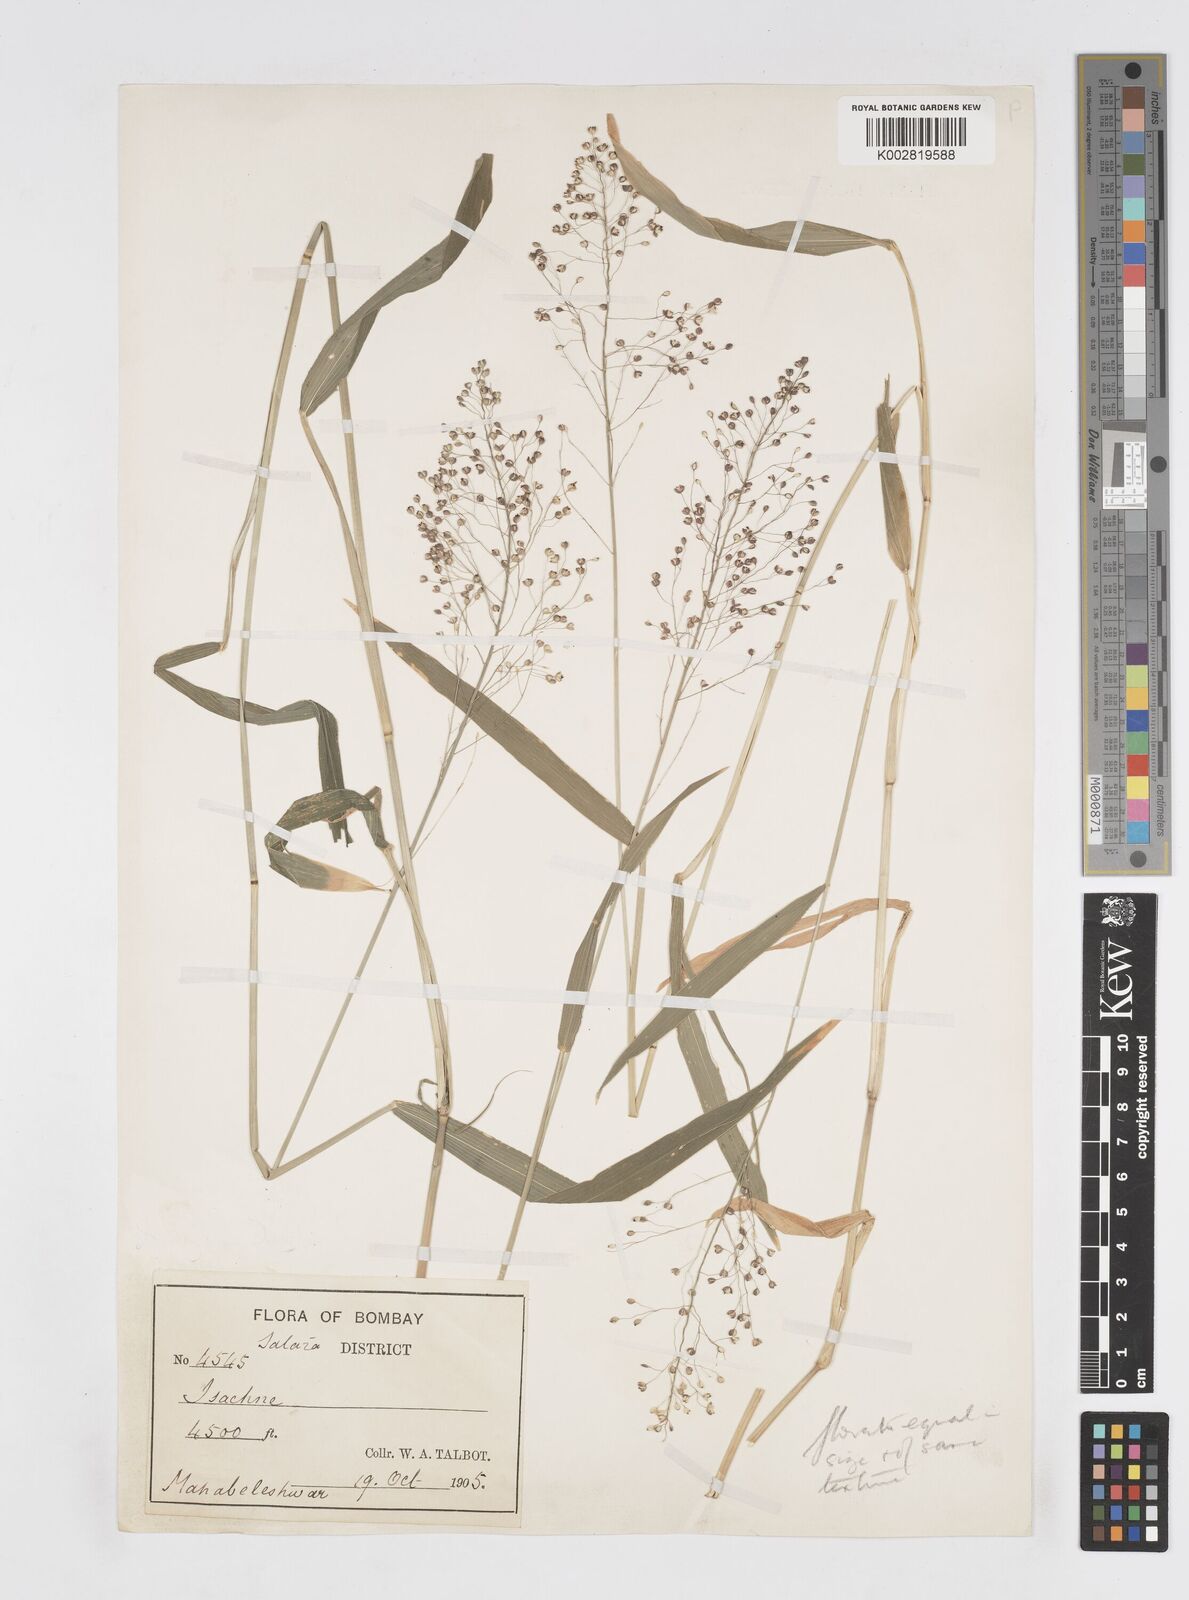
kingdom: Plantae
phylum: Tracheophyta
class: Liliopsida
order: Poales
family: Poaceae
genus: Isachne
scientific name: Isachne elegans
